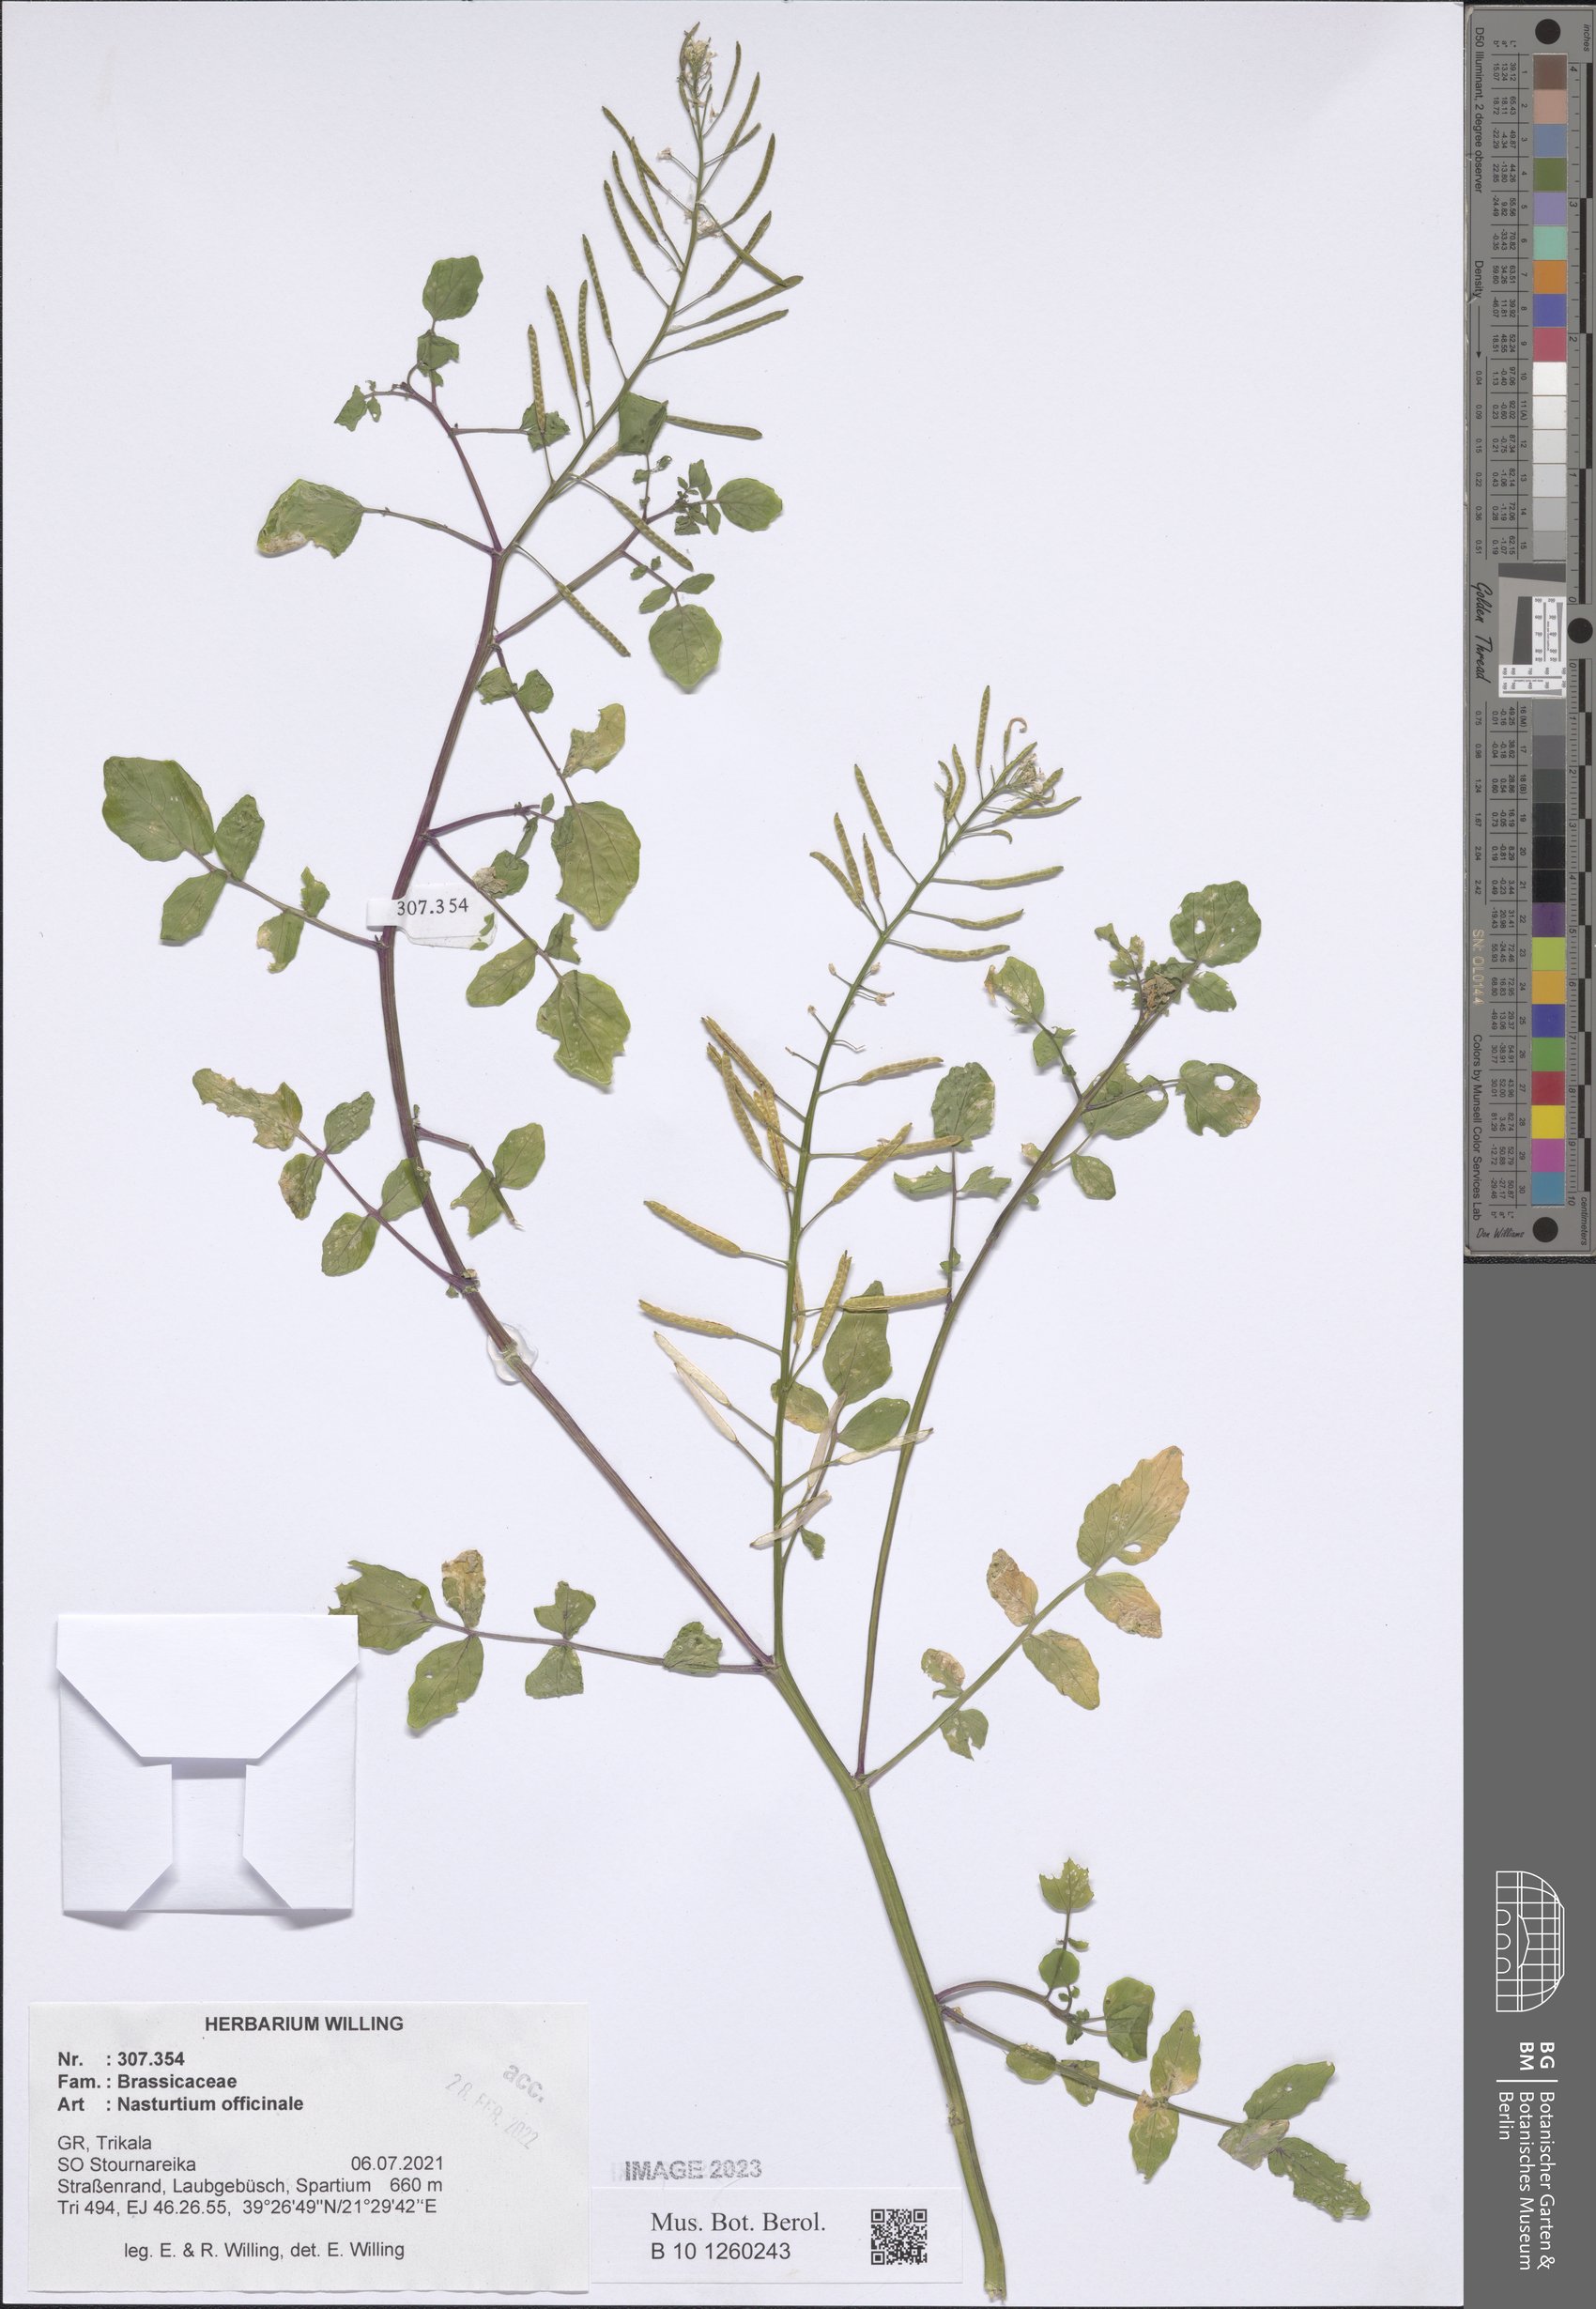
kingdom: Plantae
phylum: Tracheophyta
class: Magnoliopsida
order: Brassicales
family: Brassicaceae
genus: Nasturtium
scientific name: Nasturtium officinale
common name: Watercress
